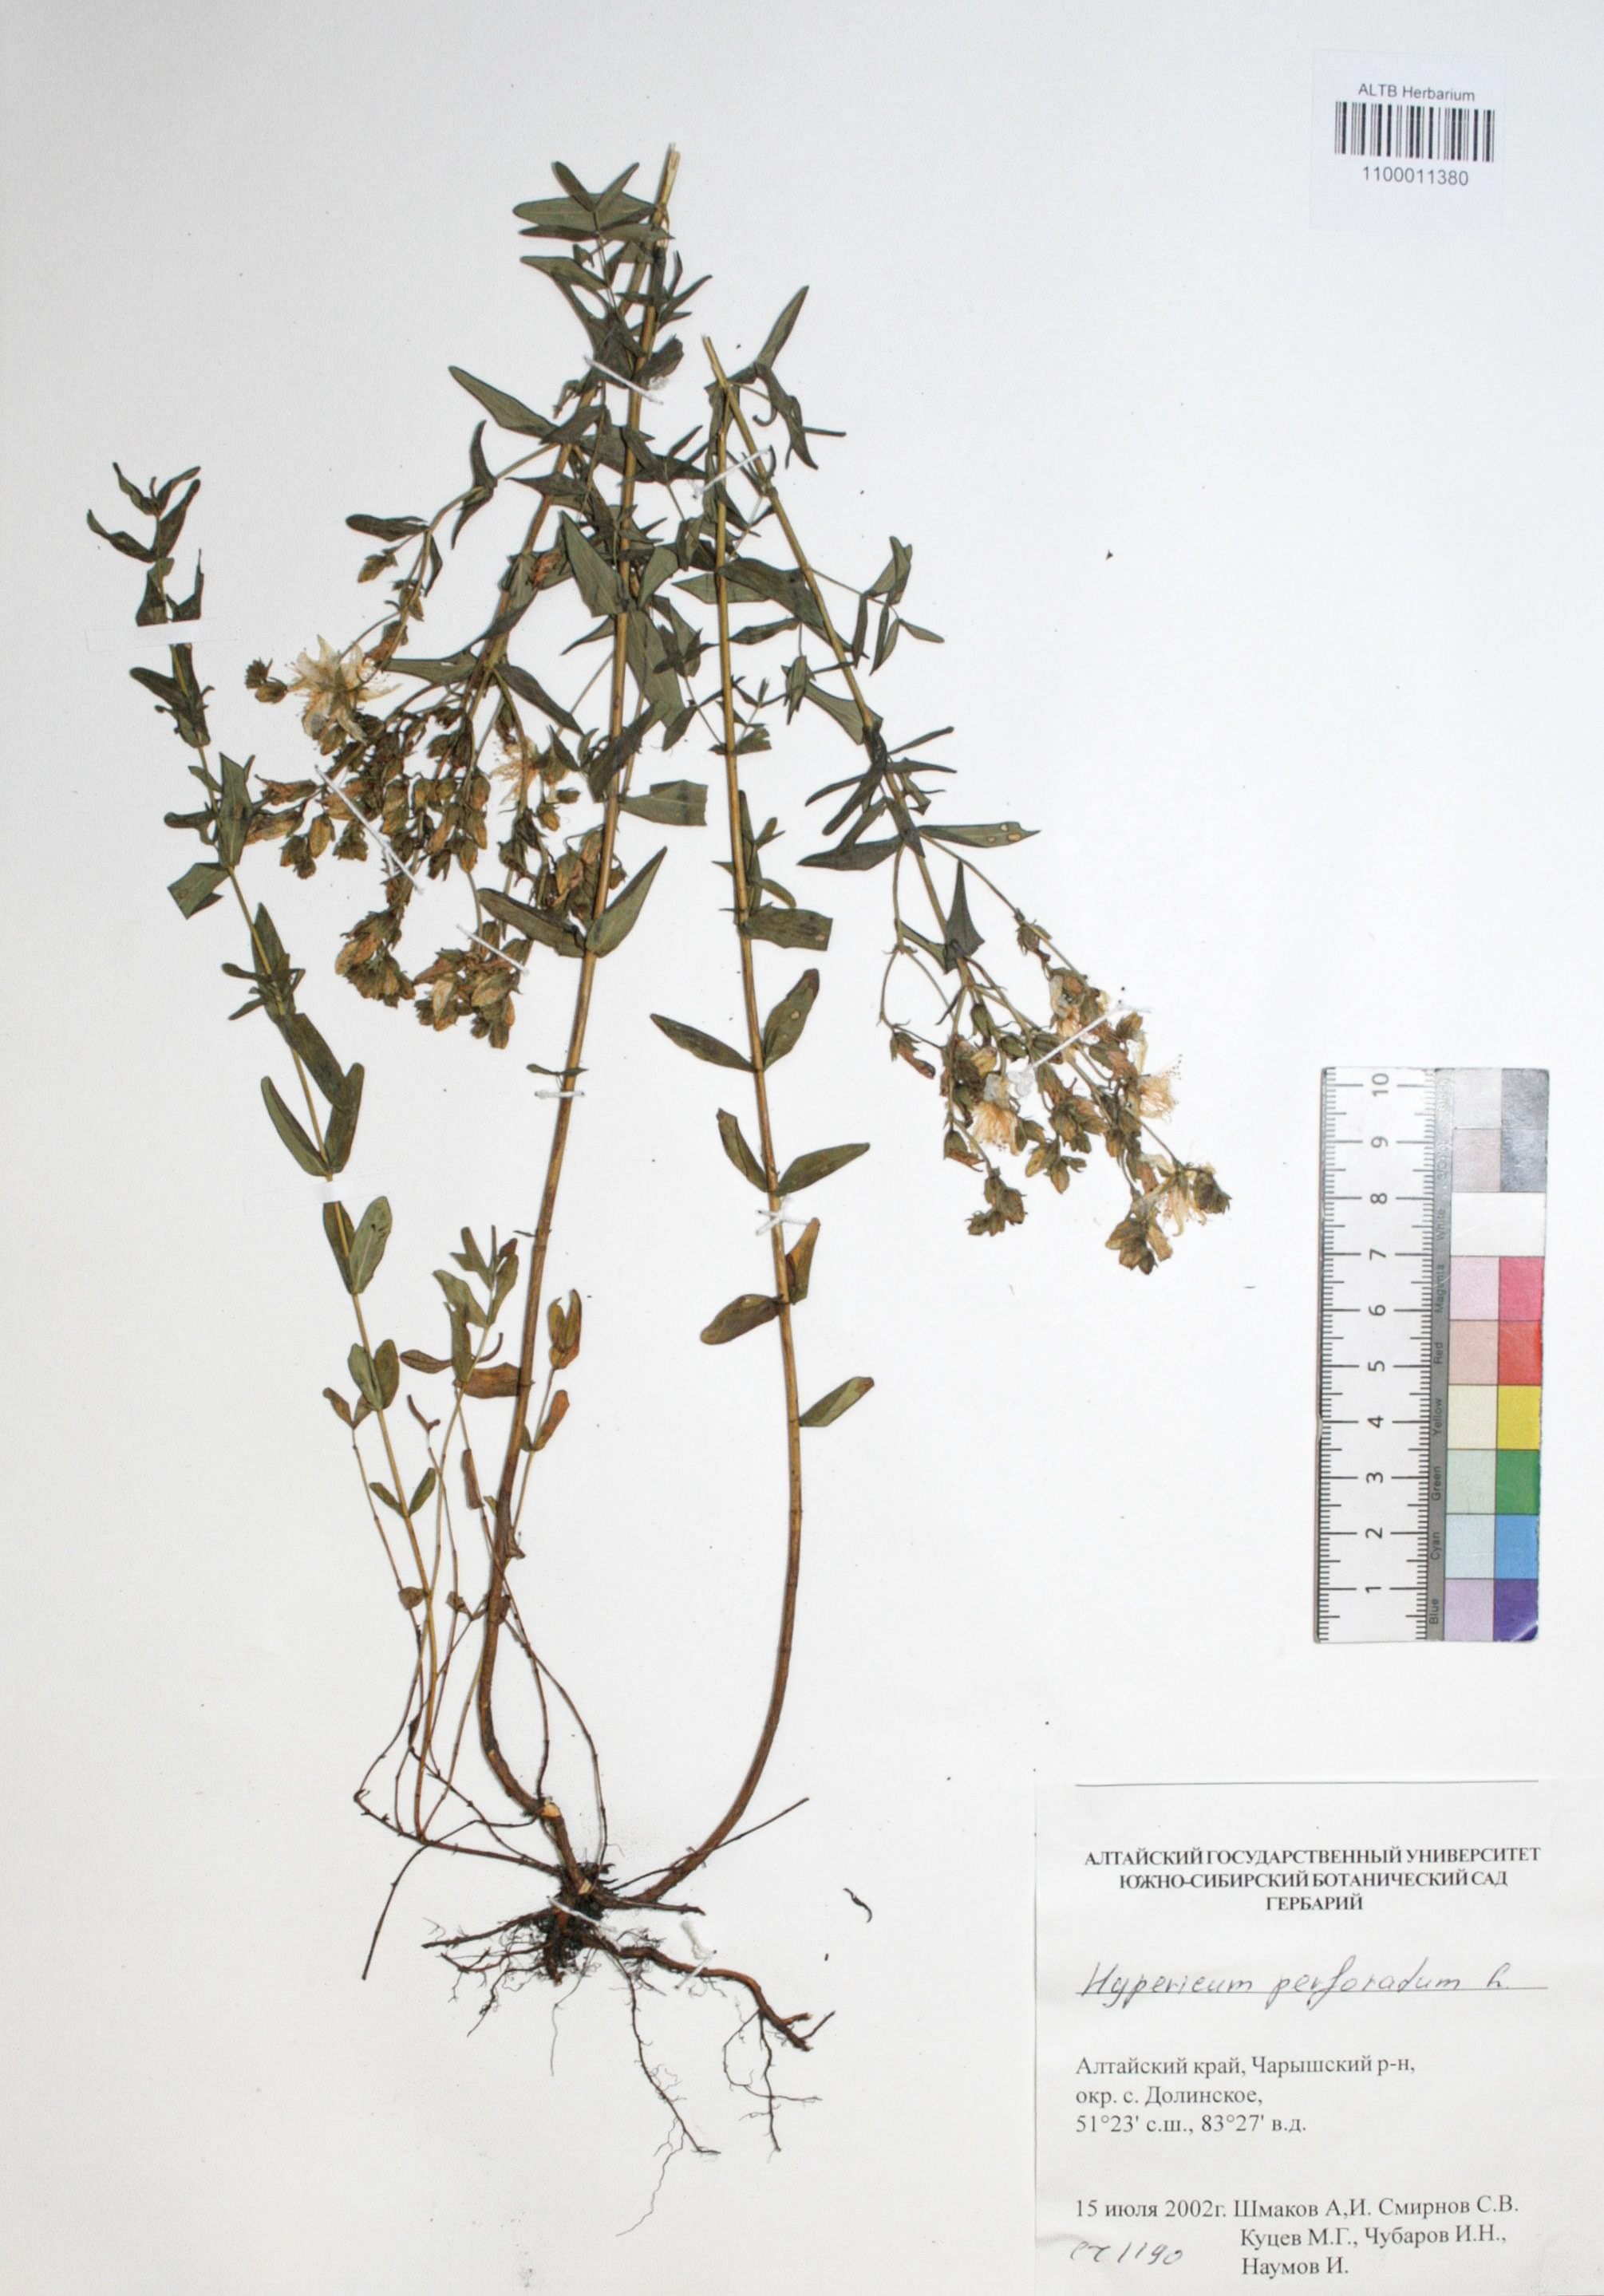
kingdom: Plantae
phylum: Tracheophyta
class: Magnoliopsida
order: Malpighiales
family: Hypericaceae
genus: Hypericum
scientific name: Hypericum perforatum
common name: Common st. johnswort
